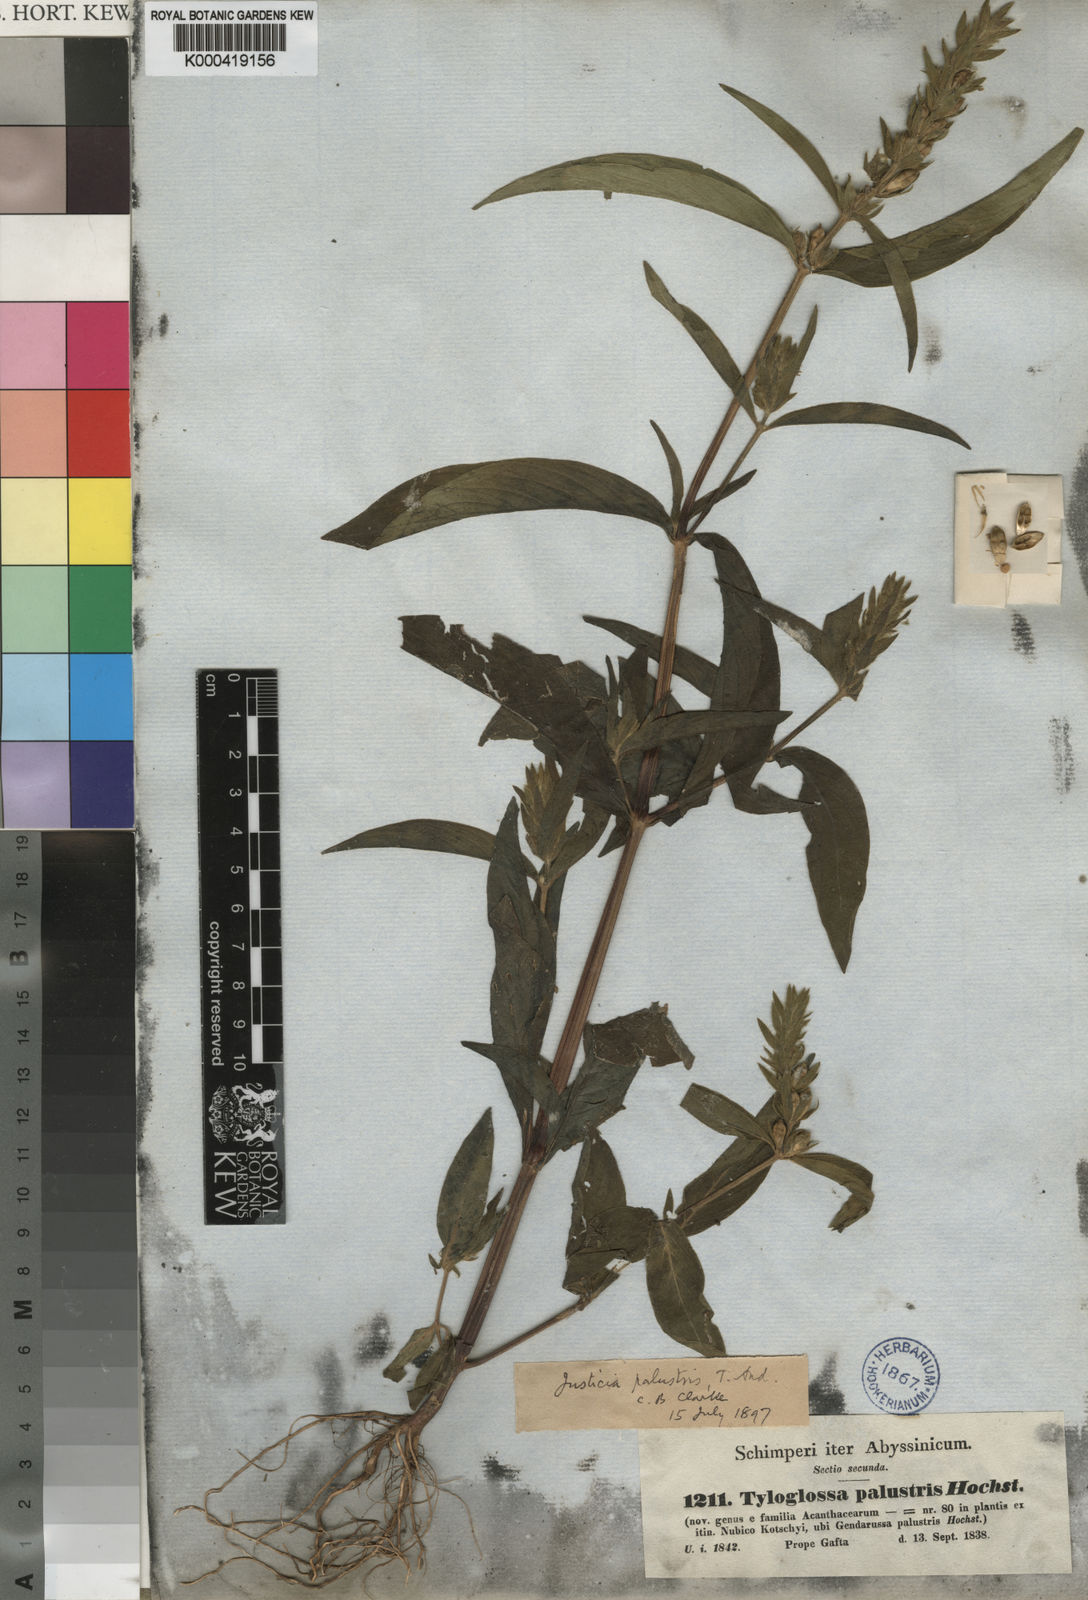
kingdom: Plantae
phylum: Tracheophyta
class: Magnoliopsida
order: Lamiales
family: Acanthaceae
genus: Justicia
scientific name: Justicia flava
